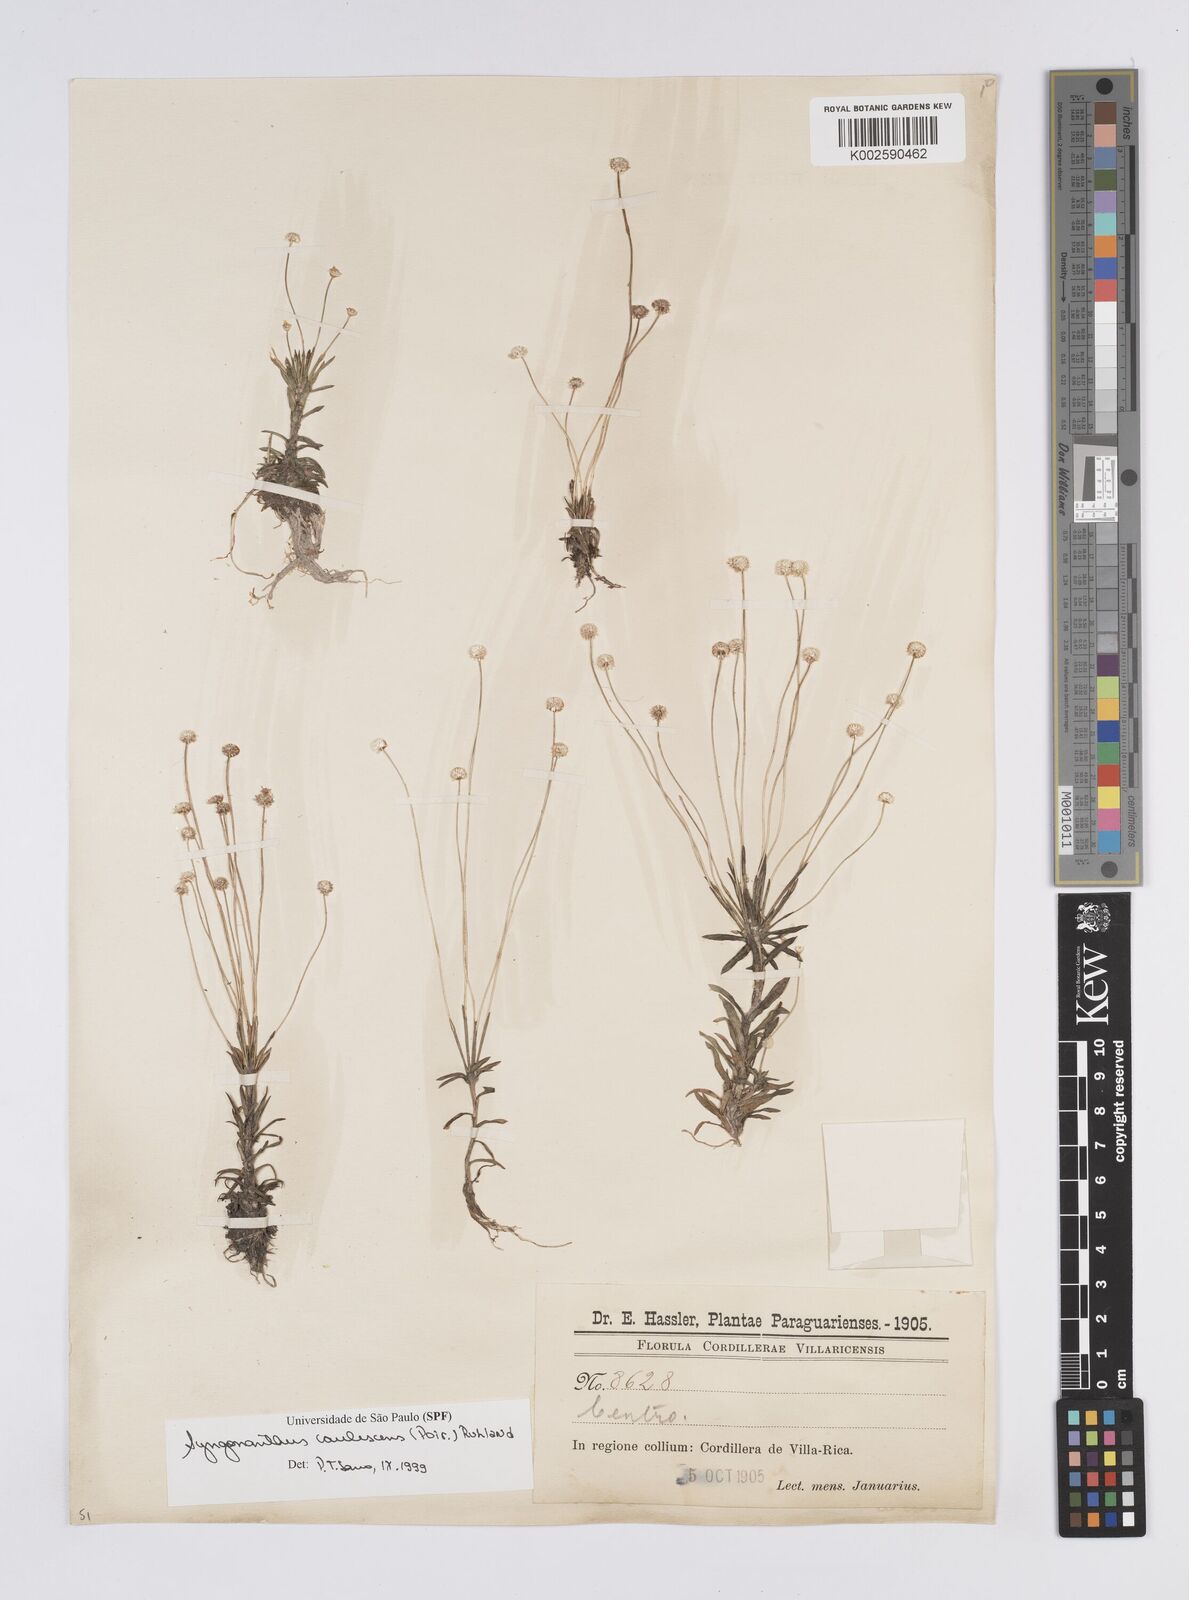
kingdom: Plantae
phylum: Tracheophyta
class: Liliopsida
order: Poales
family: Eriocaulaceae
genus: Syngonanthus
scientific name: Syngonanthus caulescens
